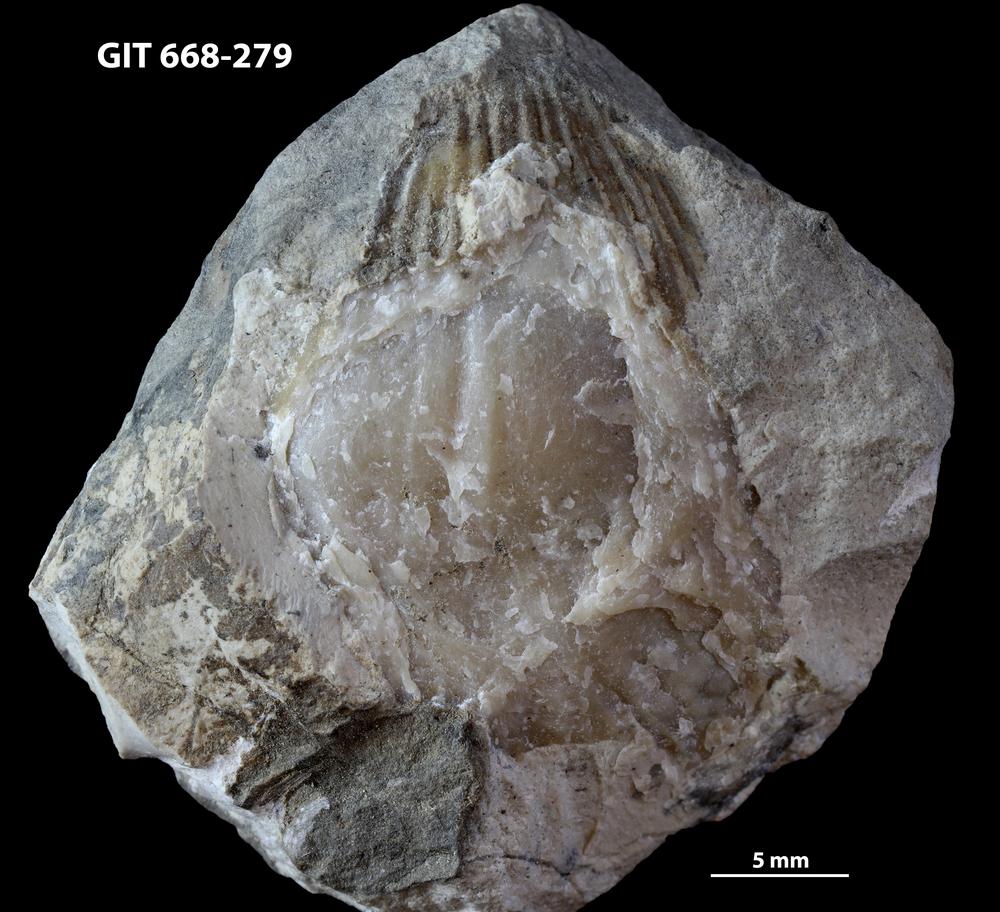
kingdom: Animalia
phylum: Brachiopoda
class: Rhynchonellata
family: Plaesiomyidae
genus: Plaesiomys
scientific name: Plaesiomys
